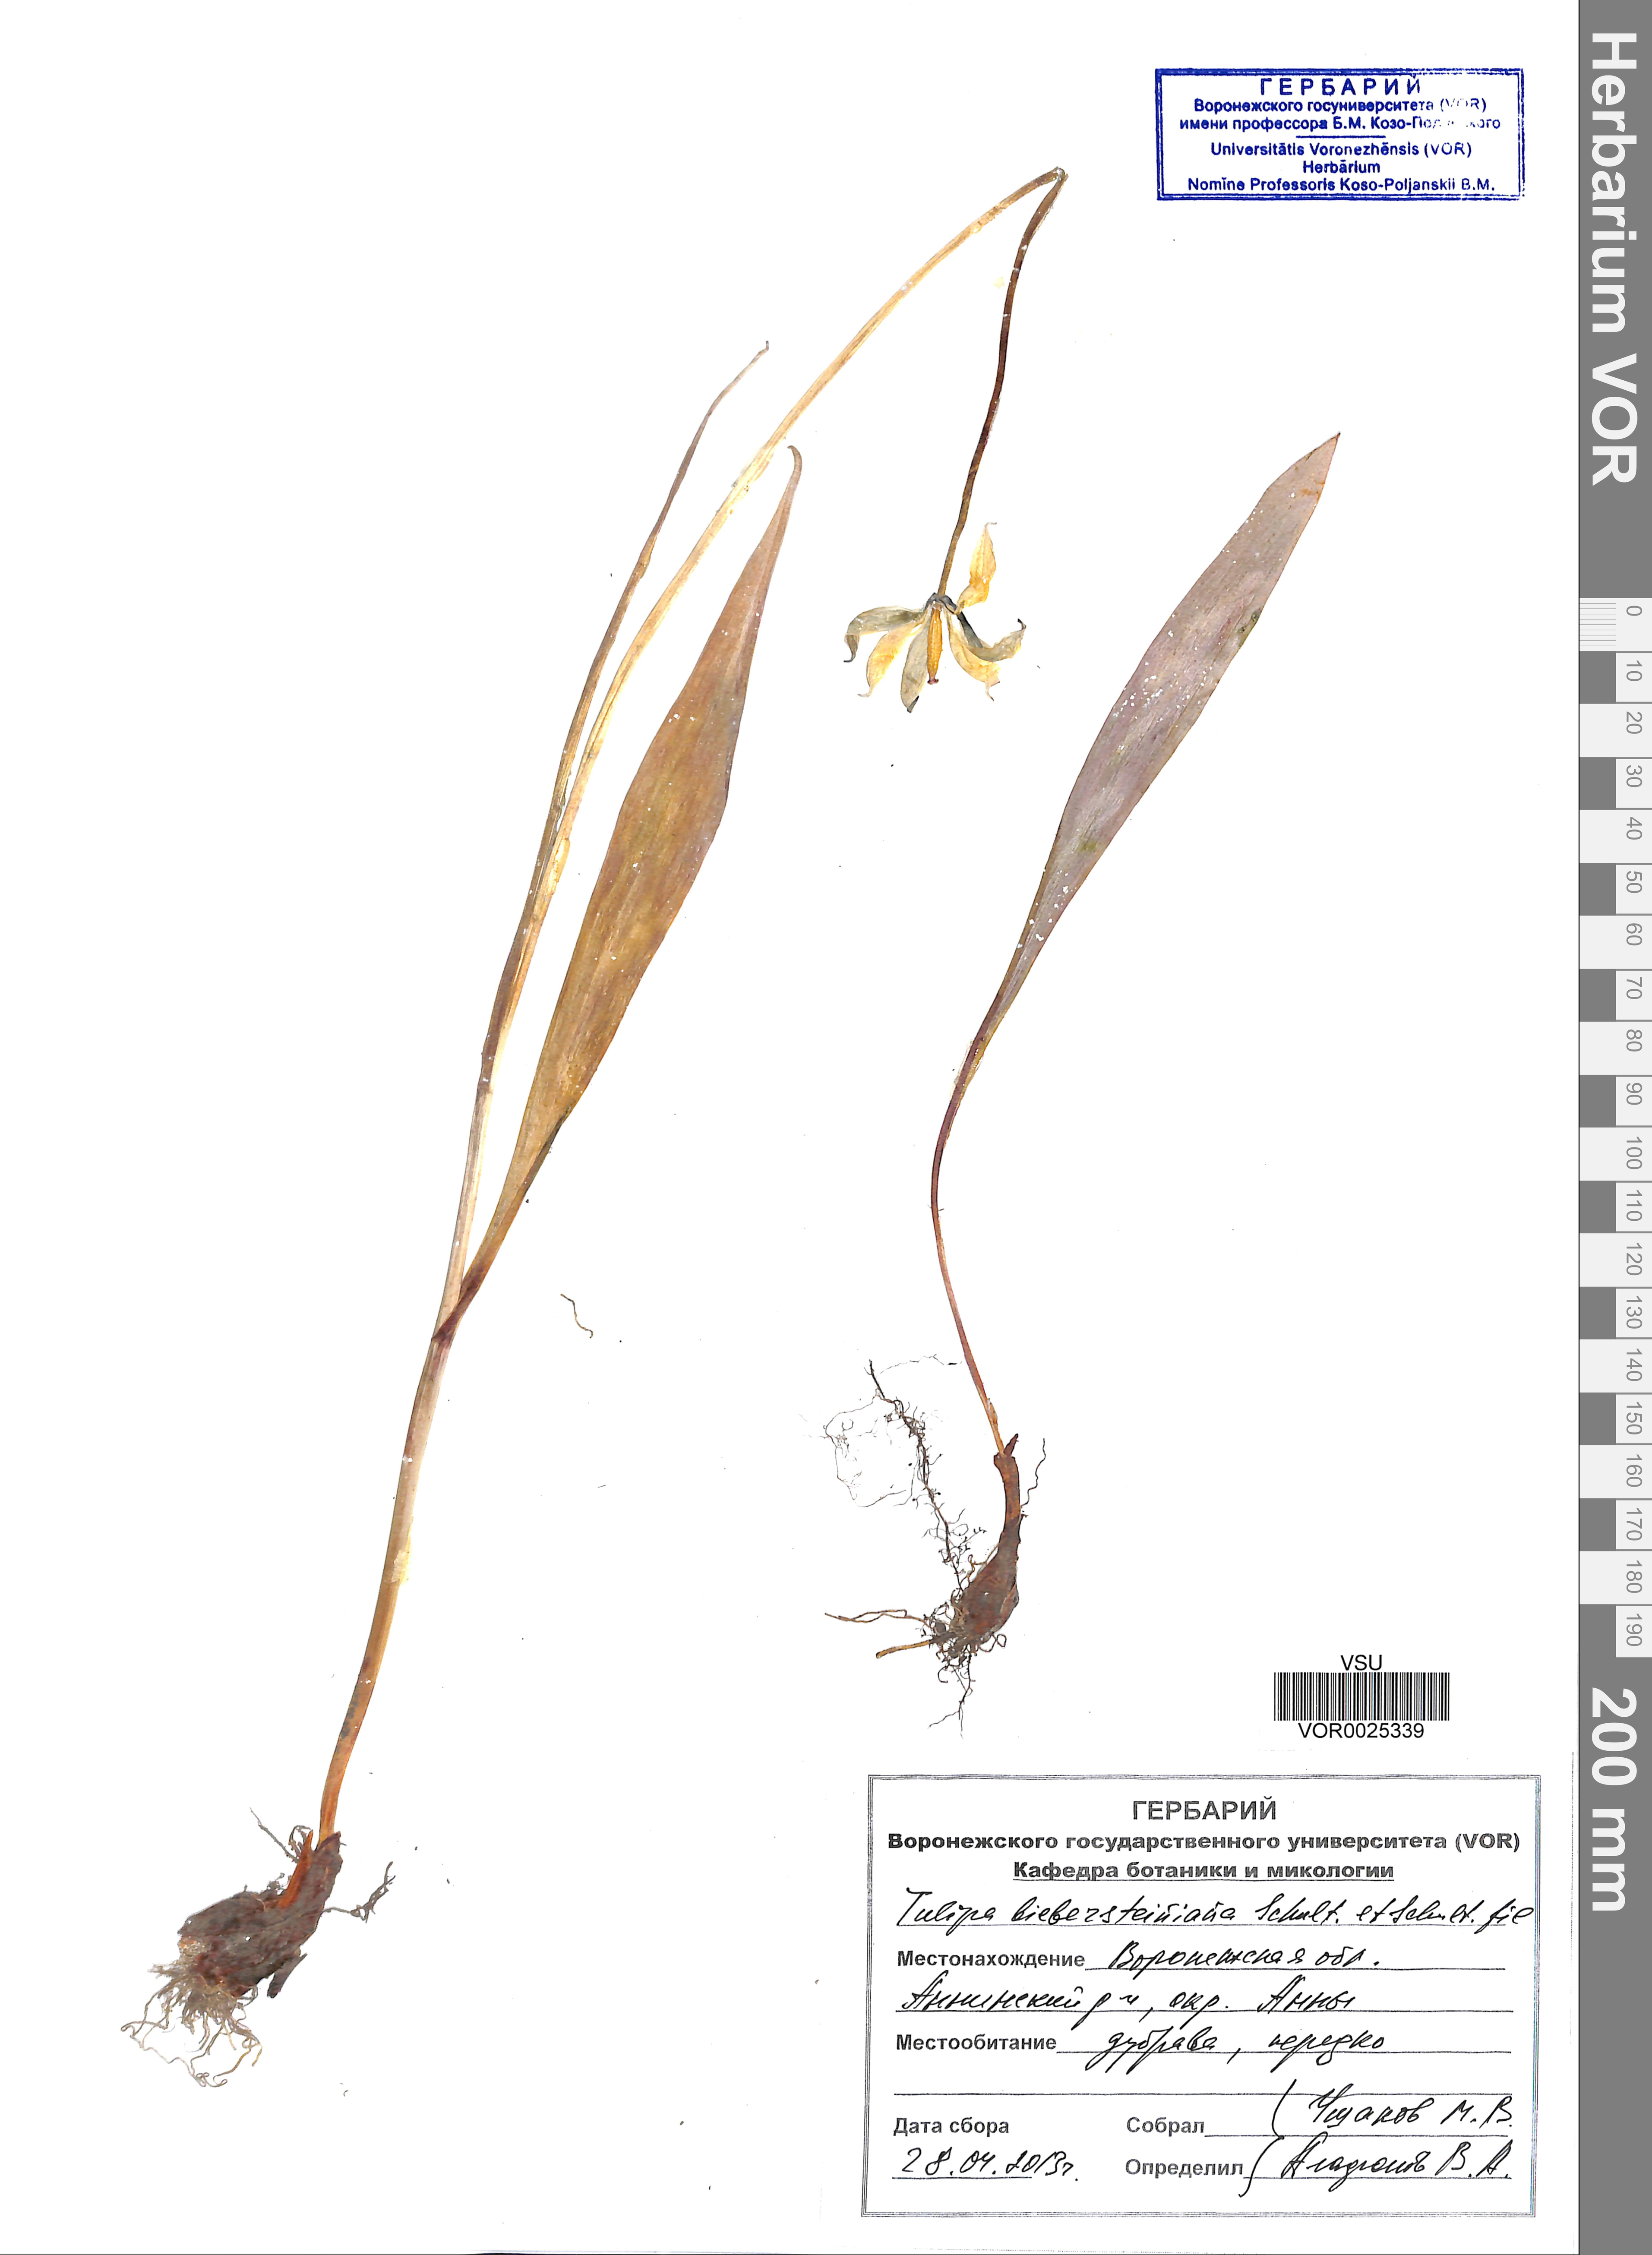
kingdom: Plantae
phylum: Tracheophyta
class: Liliopsida
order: Liliales
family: Liliaceae
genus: Tulipa
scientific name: Tulipa sylvestris
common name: Wild tulip
